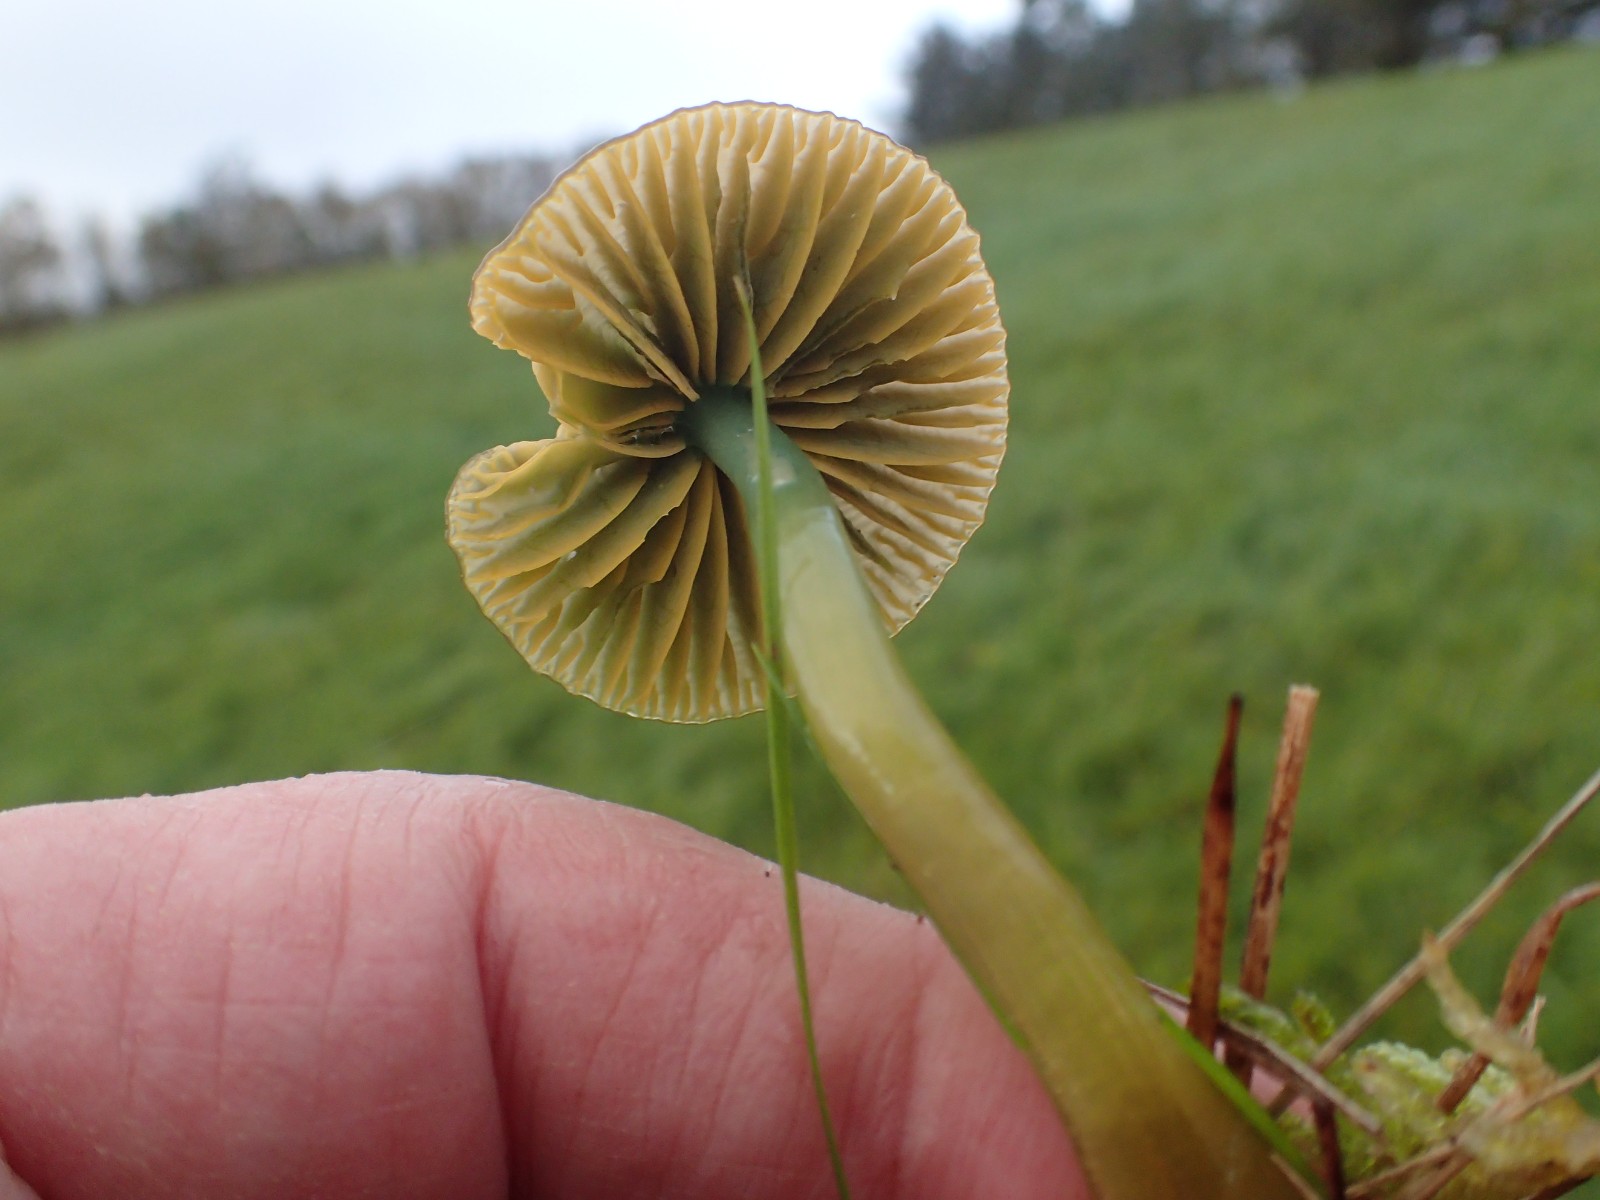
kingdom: Fungi
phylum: Basidiomycota
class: Agaricomycetes
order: Agaricales
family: Hygrophoraceae
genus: Gliophorus
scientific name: Gliophorus psittacinus
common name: papegøje-vokshat
